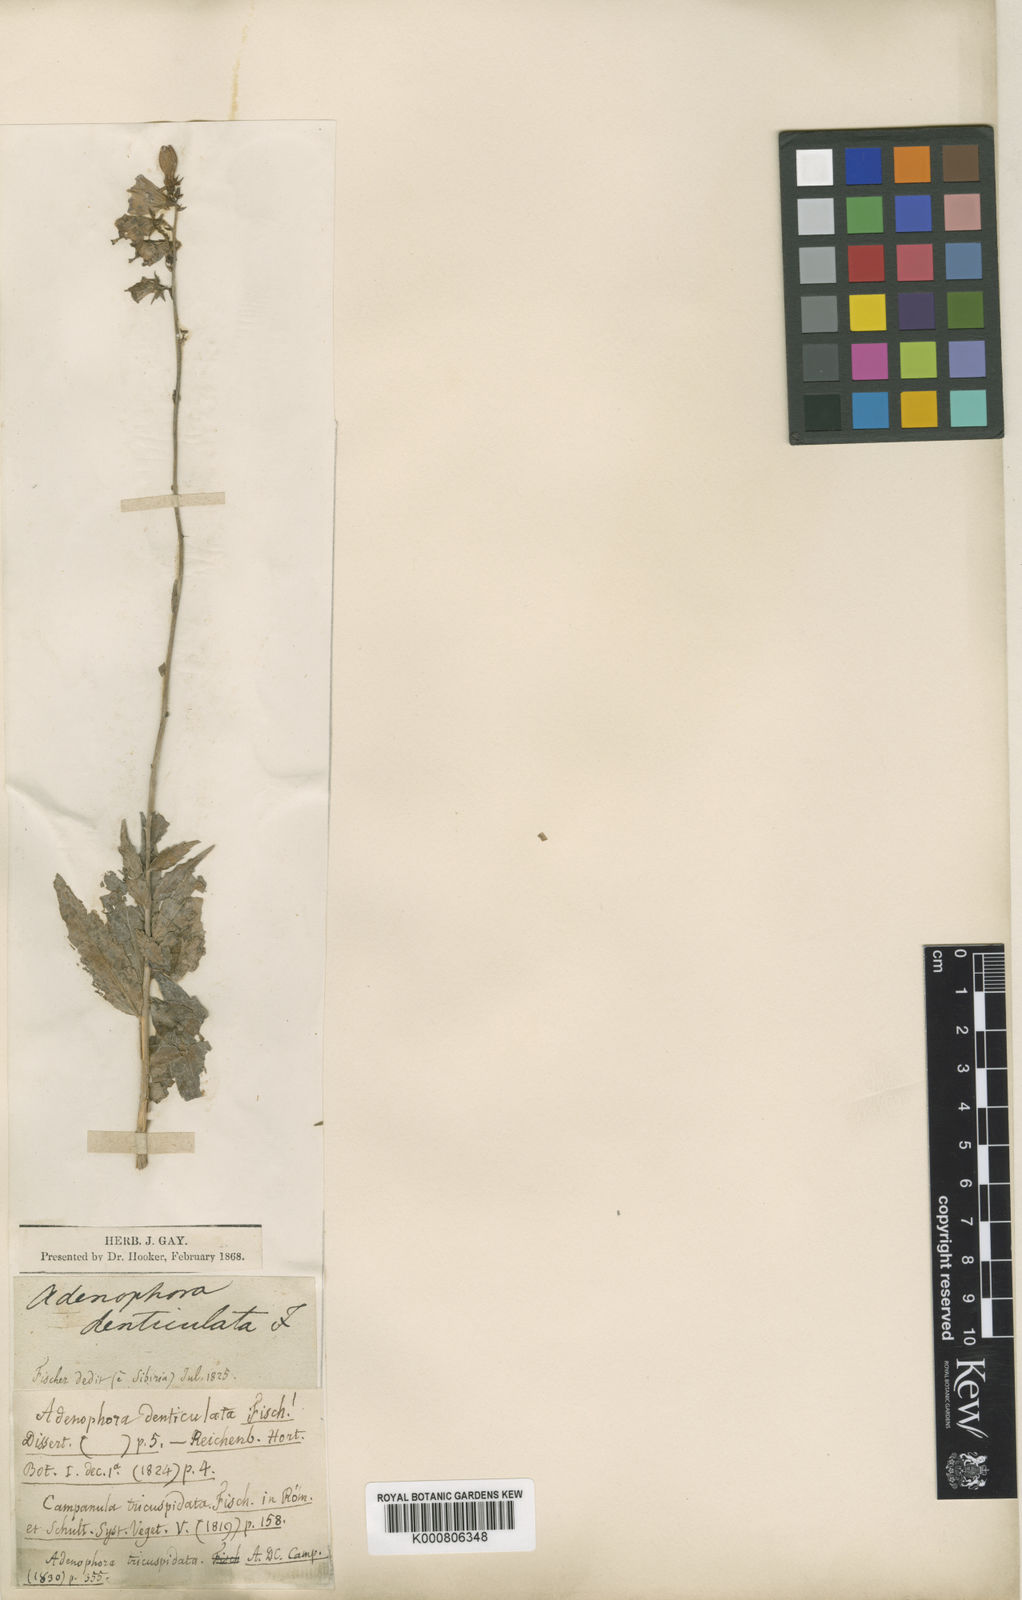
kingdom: Plantae
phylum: Tracheophyta
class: Magnoliopsida
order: Asterales
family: Campanulaceae
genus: Adenophora
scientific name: Adenophora tricuspidata
